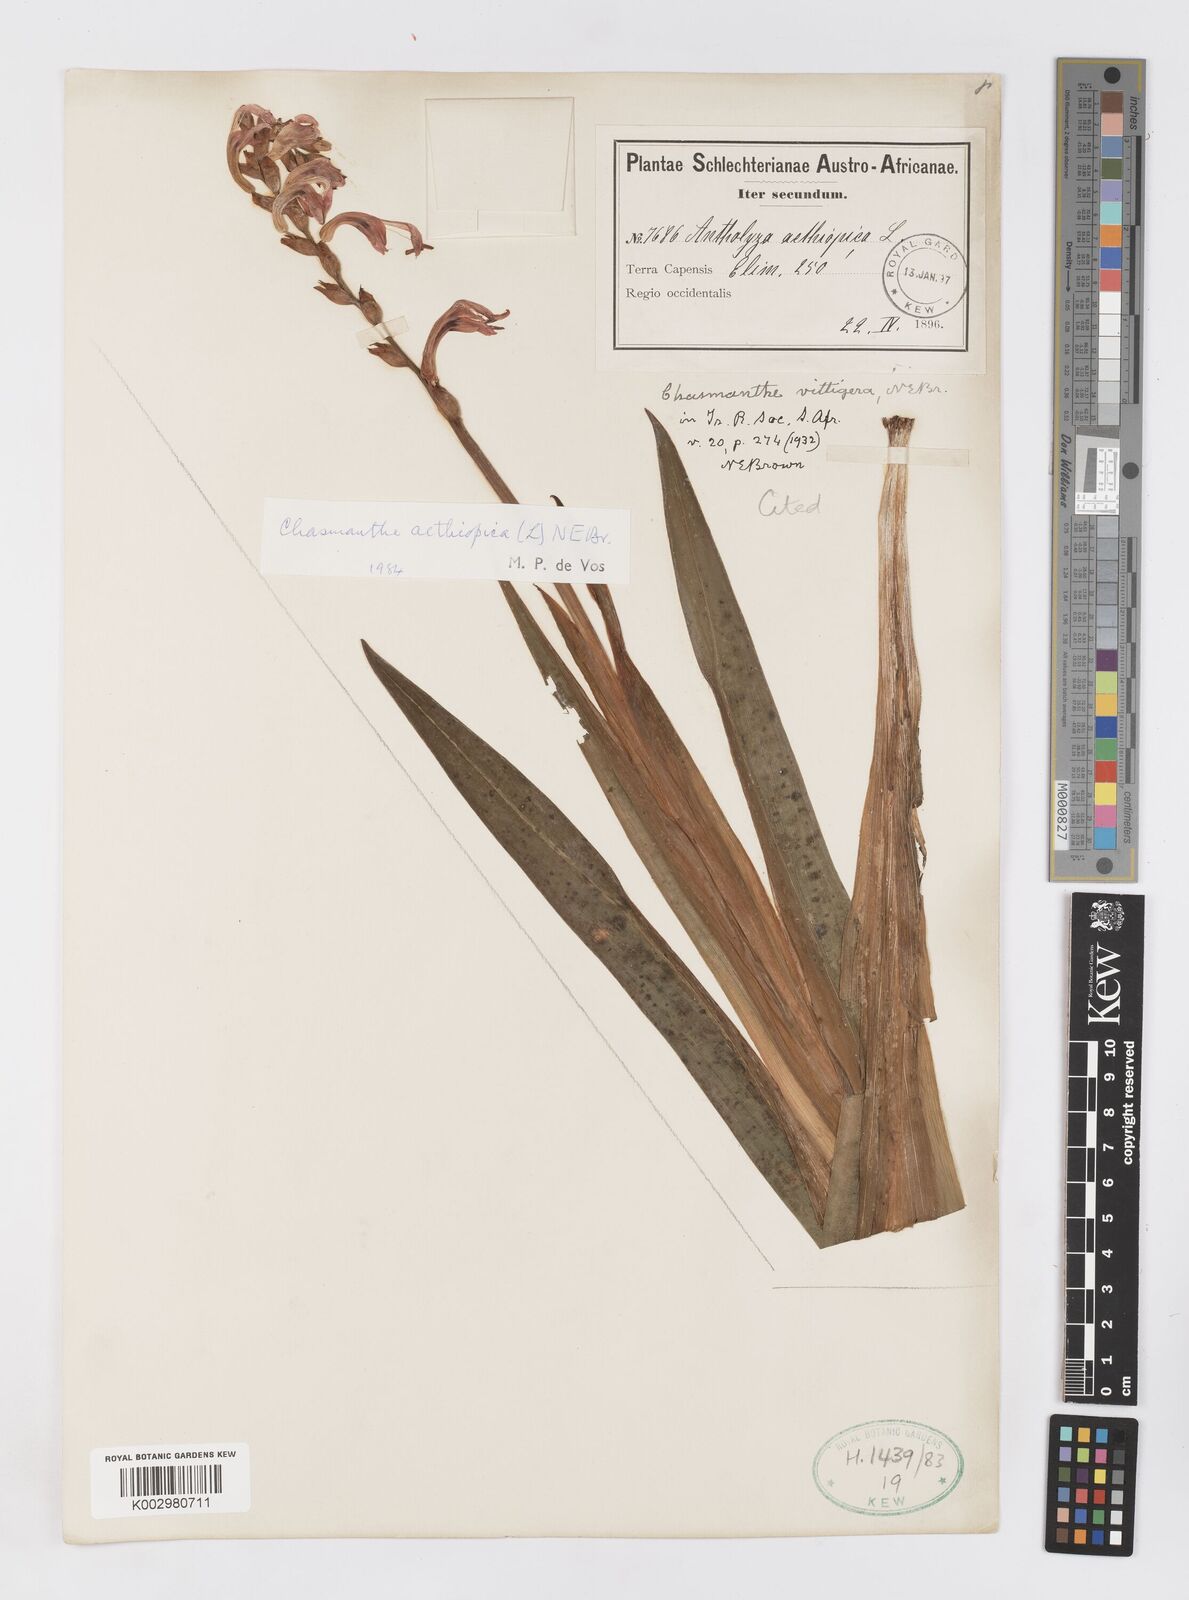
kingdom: Plantae
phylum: Tracheophyta
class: Liliopsida
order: Asparagales
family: Iridaceae
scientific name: Iridaceae
